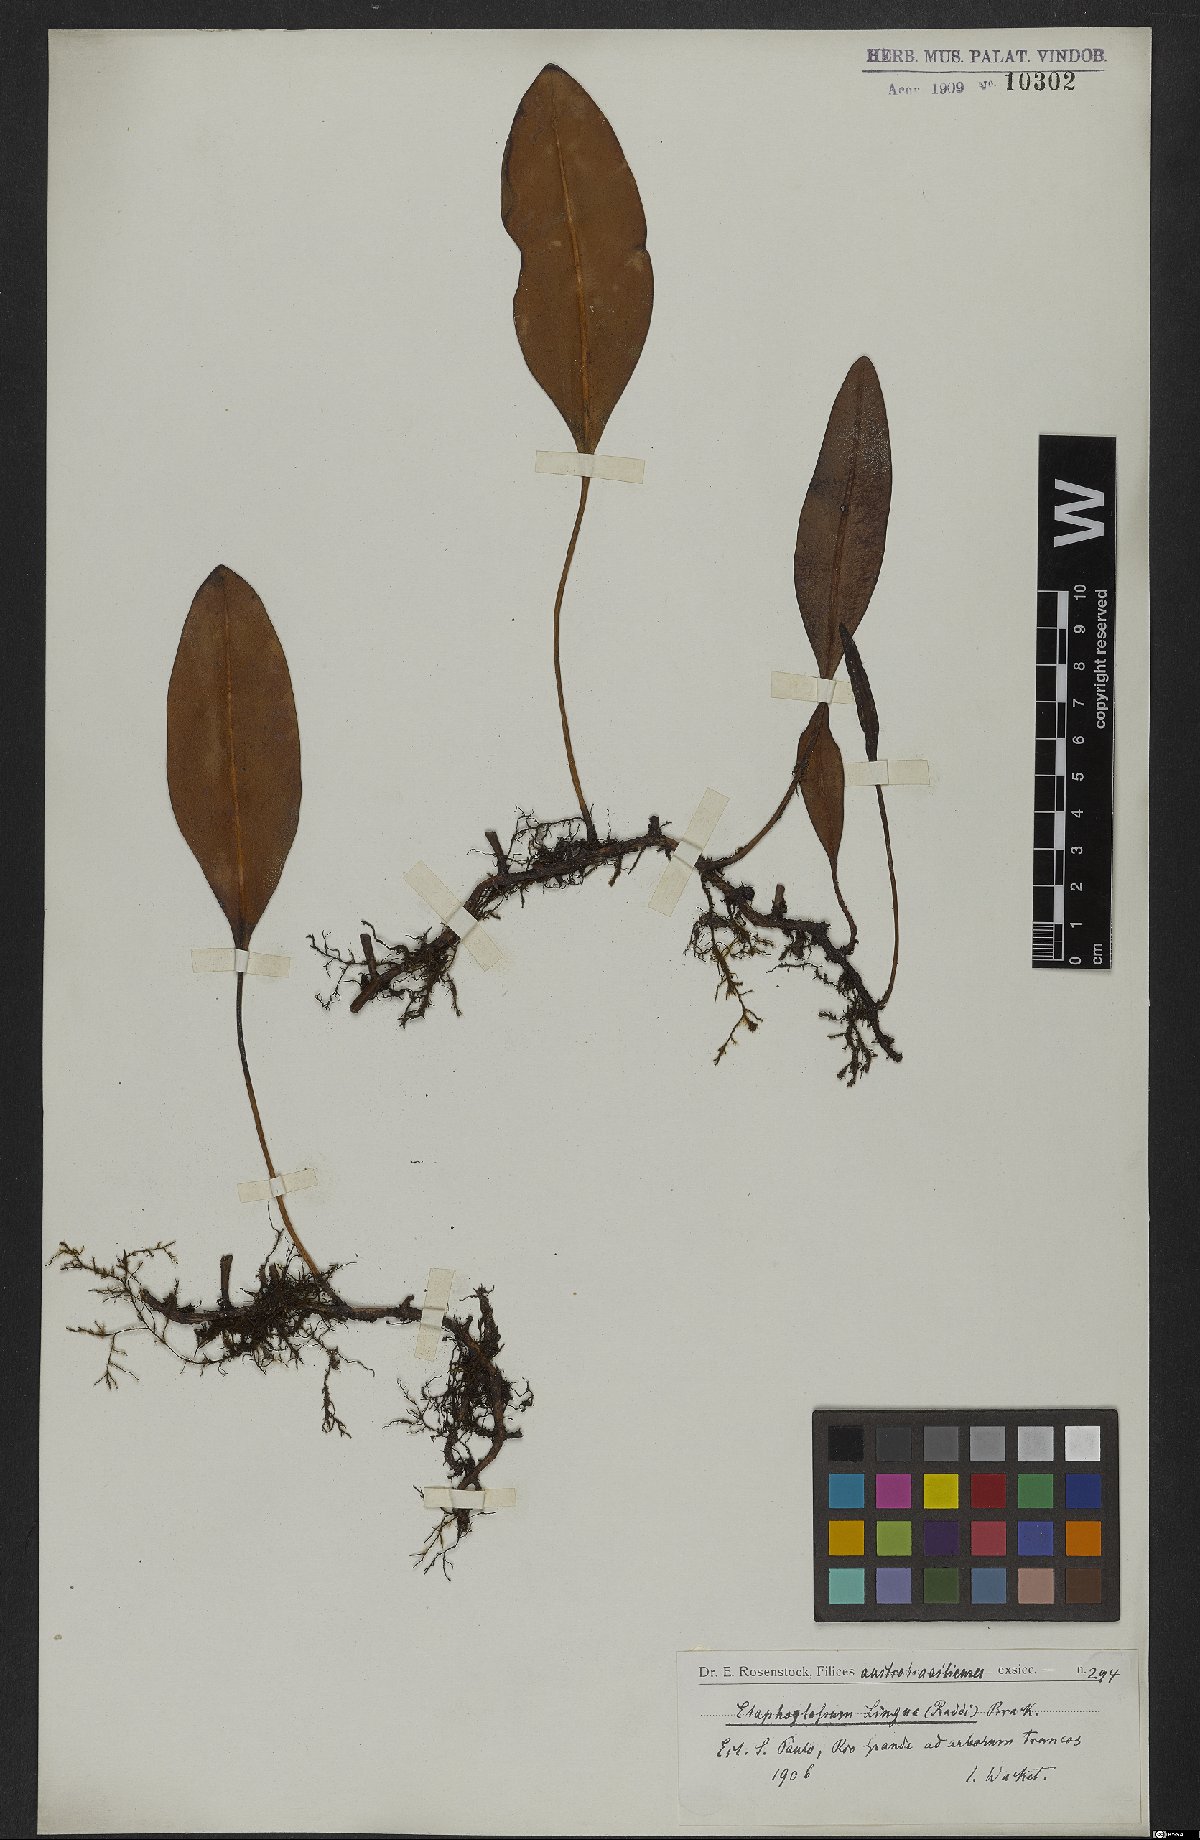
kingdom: Plantae
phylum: Tracheophyta
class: Polypodiopsida
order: Polypodiales
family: Dryopteridaceae
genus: Elaphoglossum
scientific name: Elaphoglossum brachyneuron
